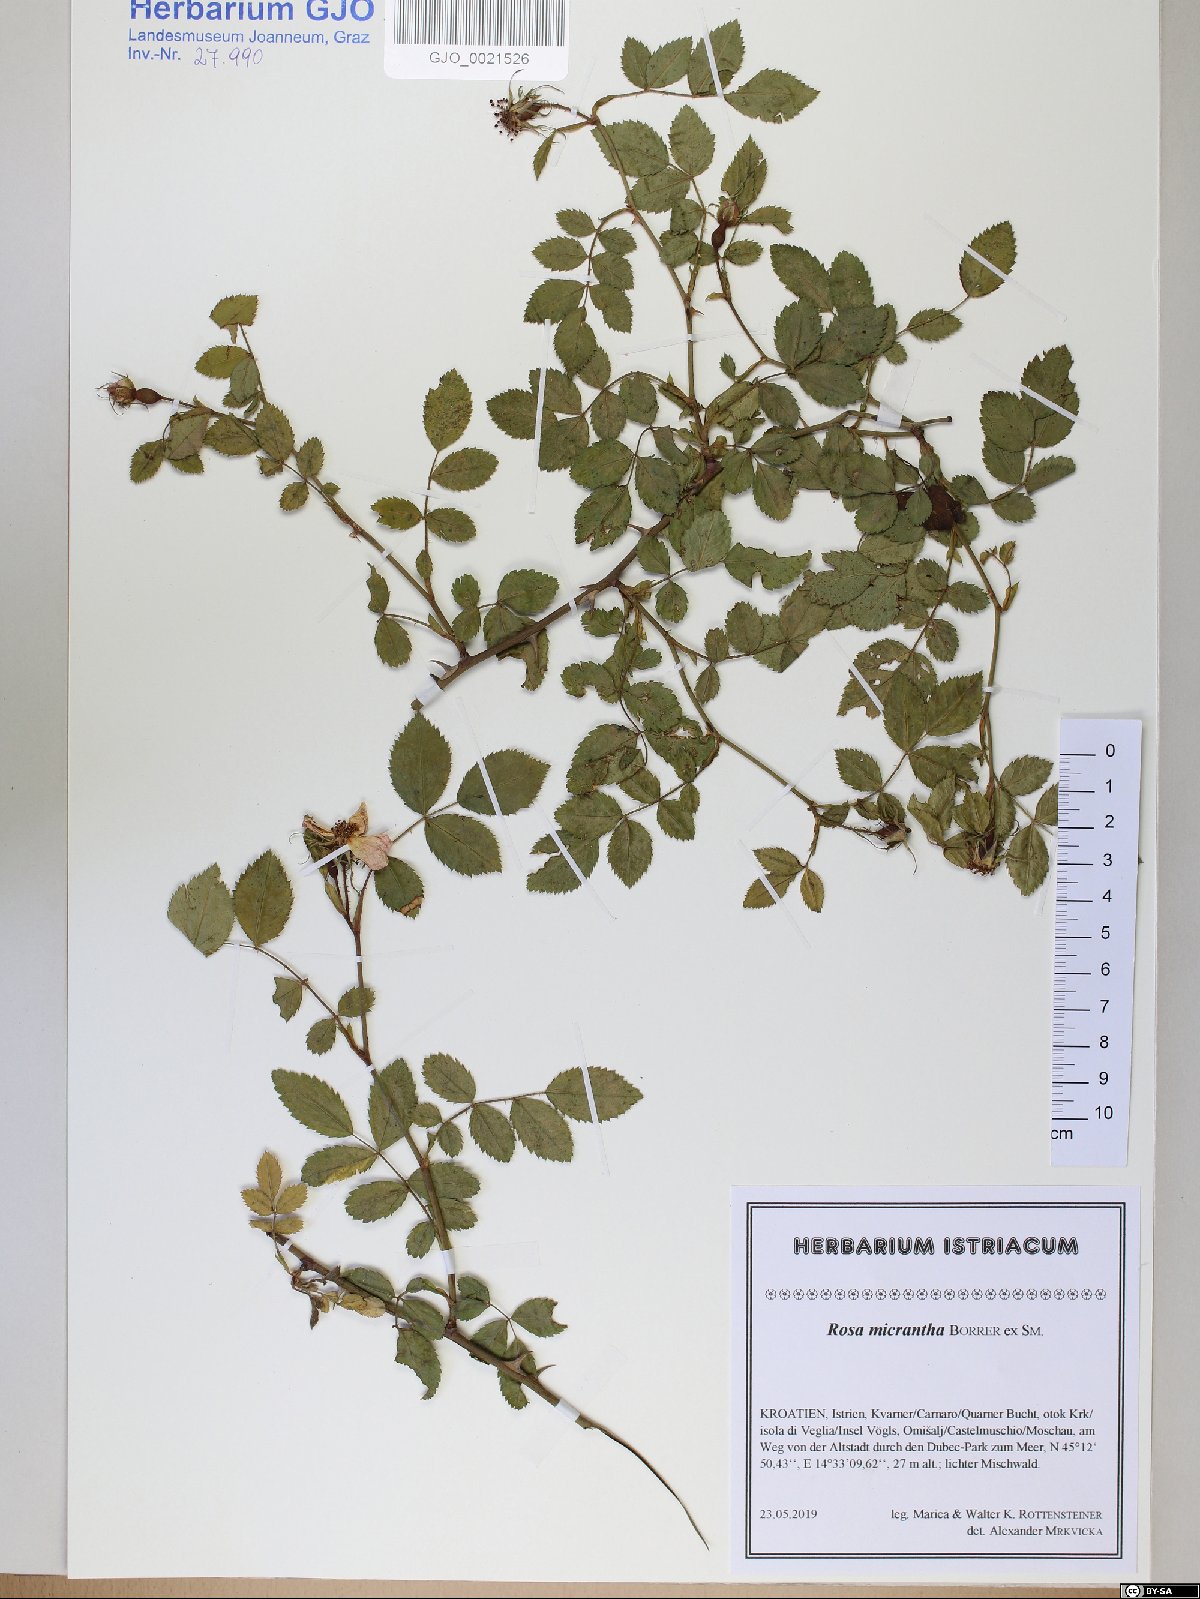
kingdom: Plantae
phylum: Tracheophyta
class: Magnoliopsida
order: Rosales
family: Rosaceae
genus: Rosa
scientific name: Rosa micrantha
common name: Small-flowered sweet-briar
